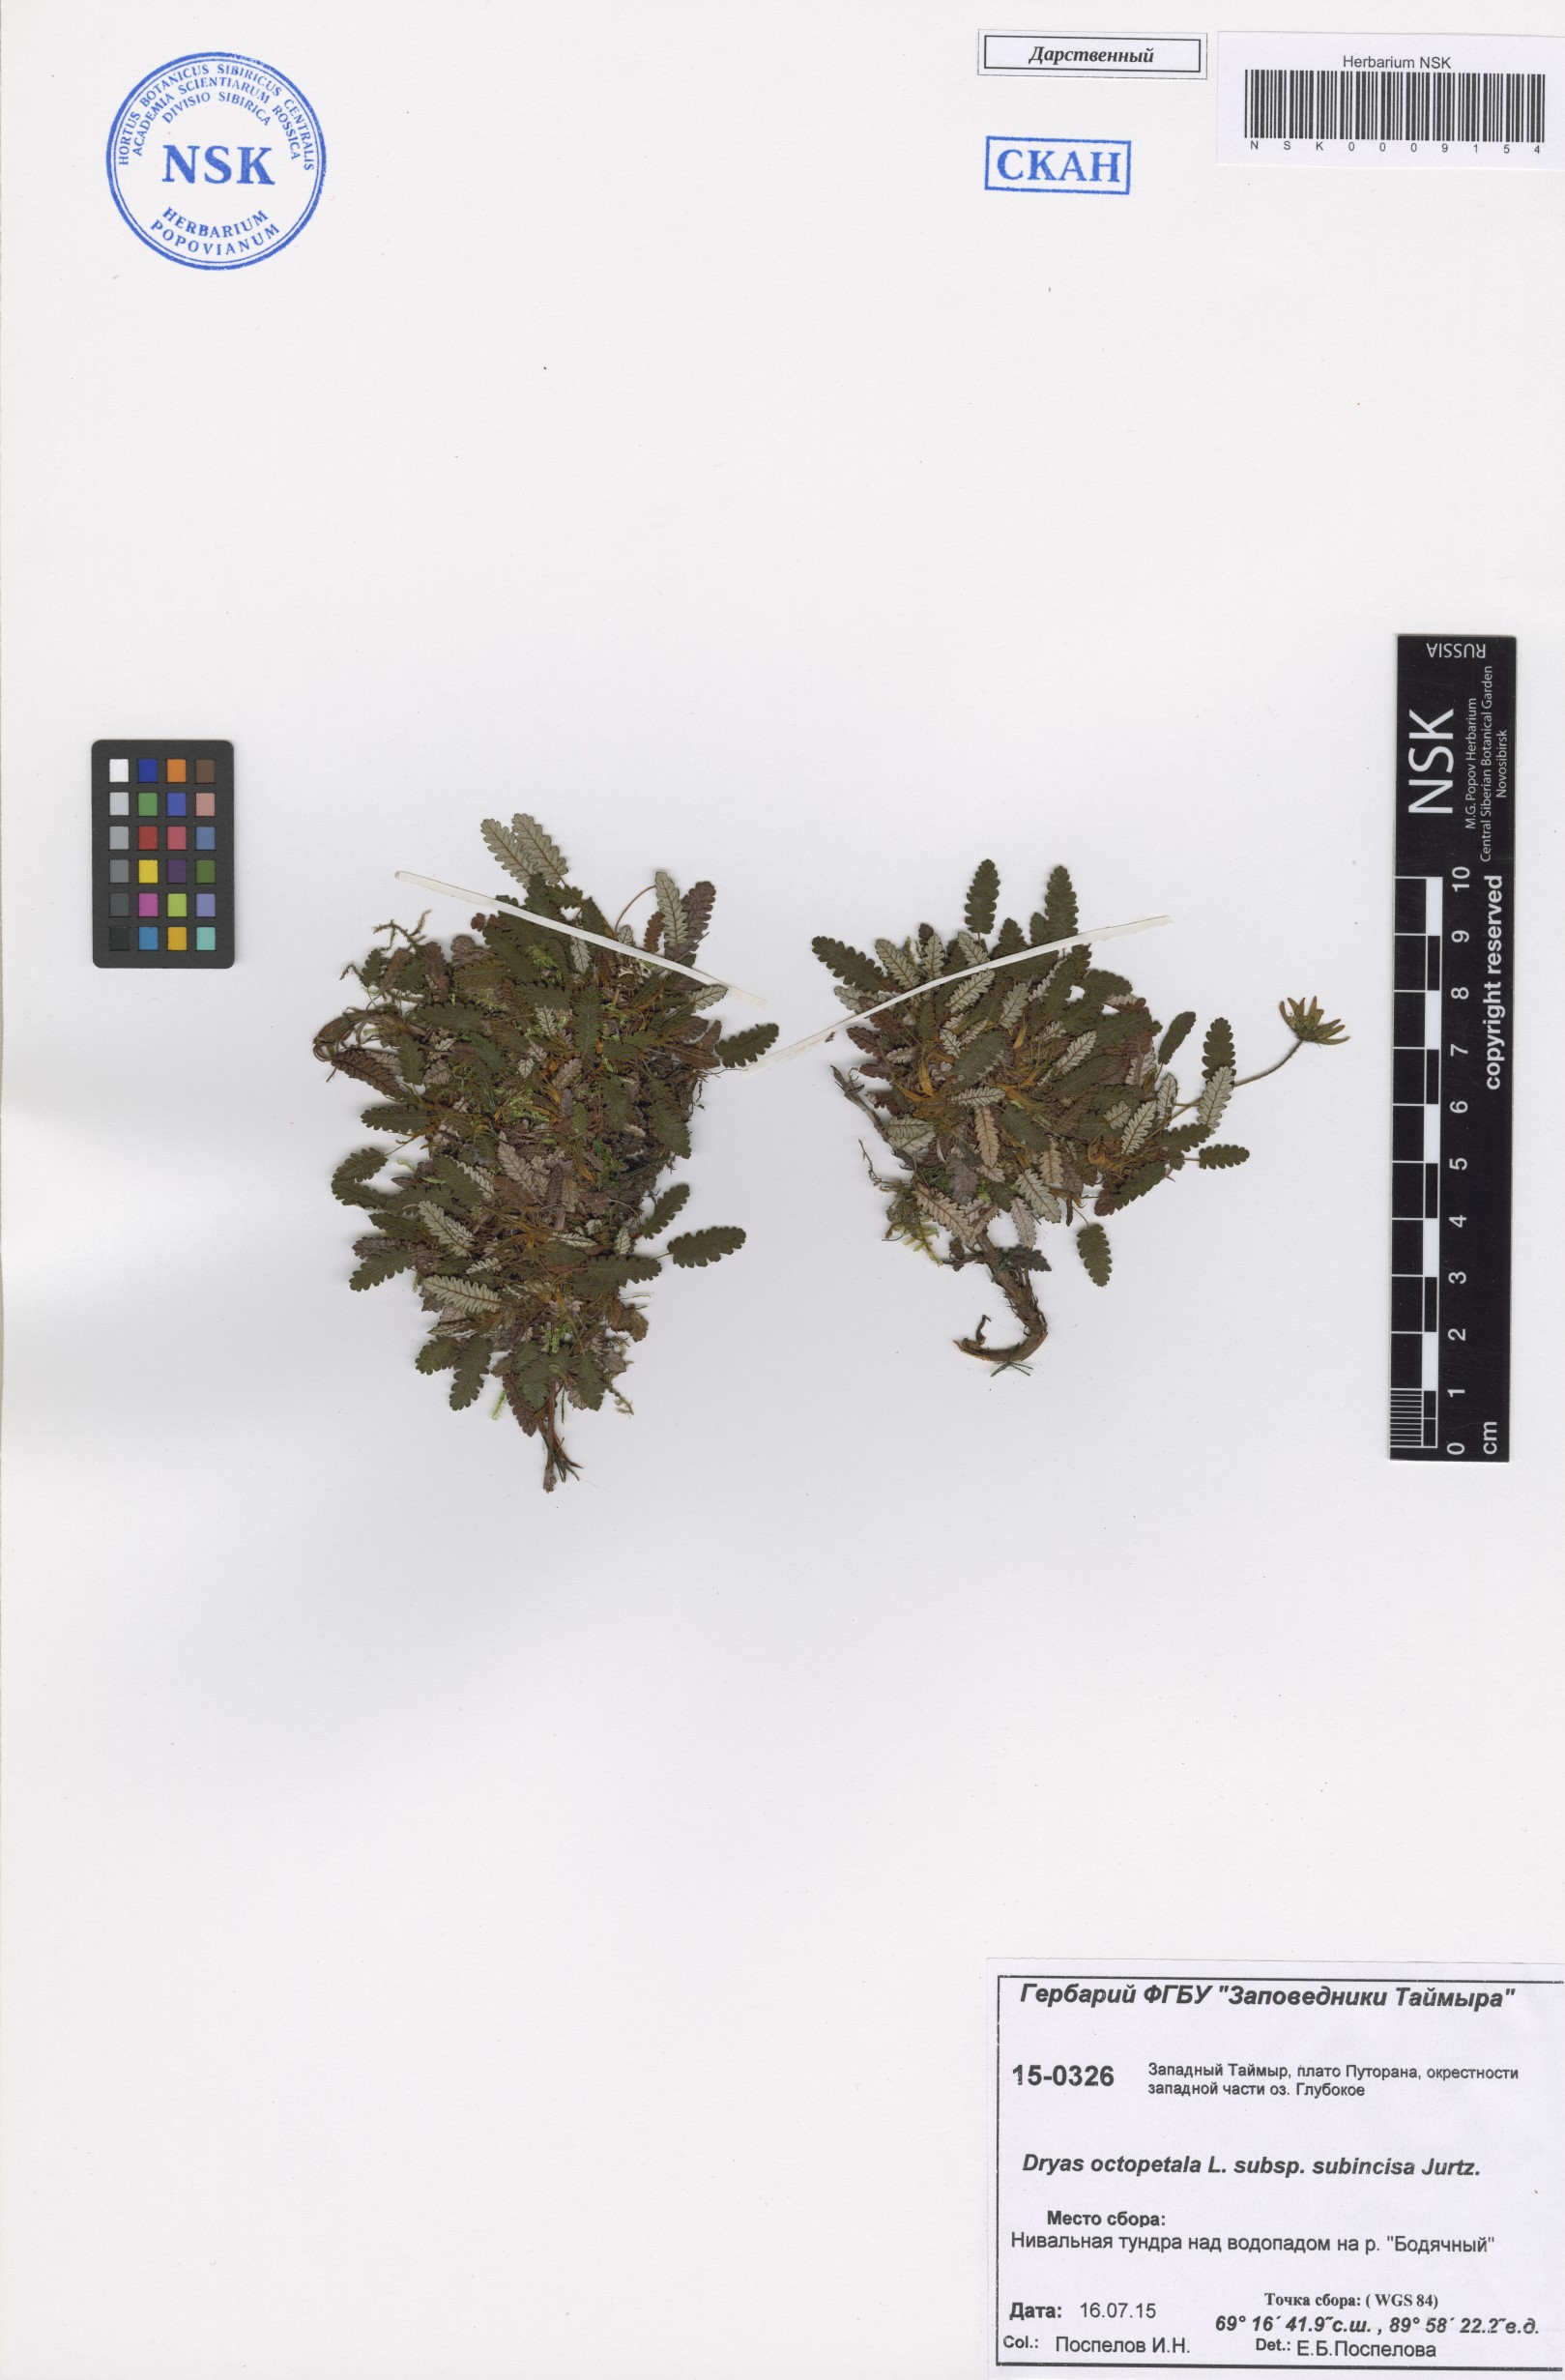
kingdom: Plantae
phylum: Tracheophyta
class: Magnoliopsida
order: Rosales
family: Rosaceae
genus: Dryas
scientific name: Dryas octopetala
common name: Eight-petal mountain-avens
